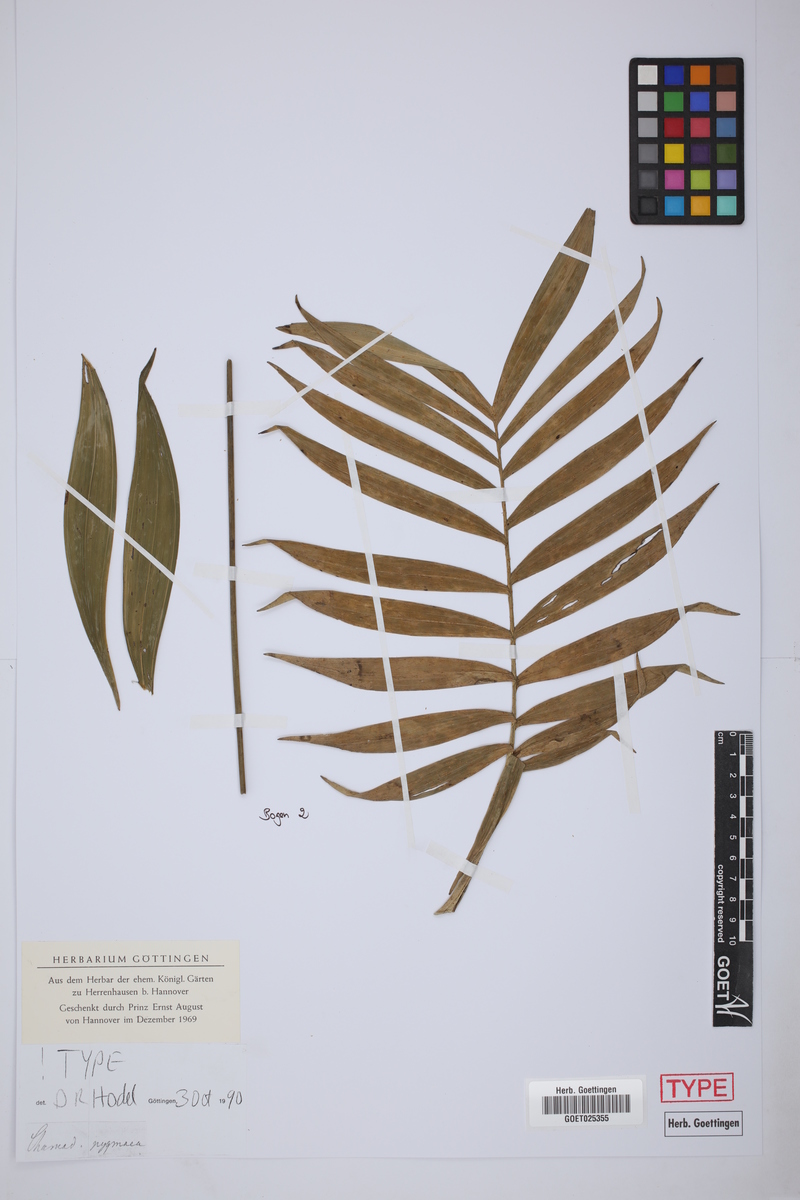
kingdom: Plantae
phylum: Tracheophyta
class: Liliopsida
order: Arecales
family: Arecaceae
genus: Chamaedorea
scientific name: Chamaedorea pygmaea
